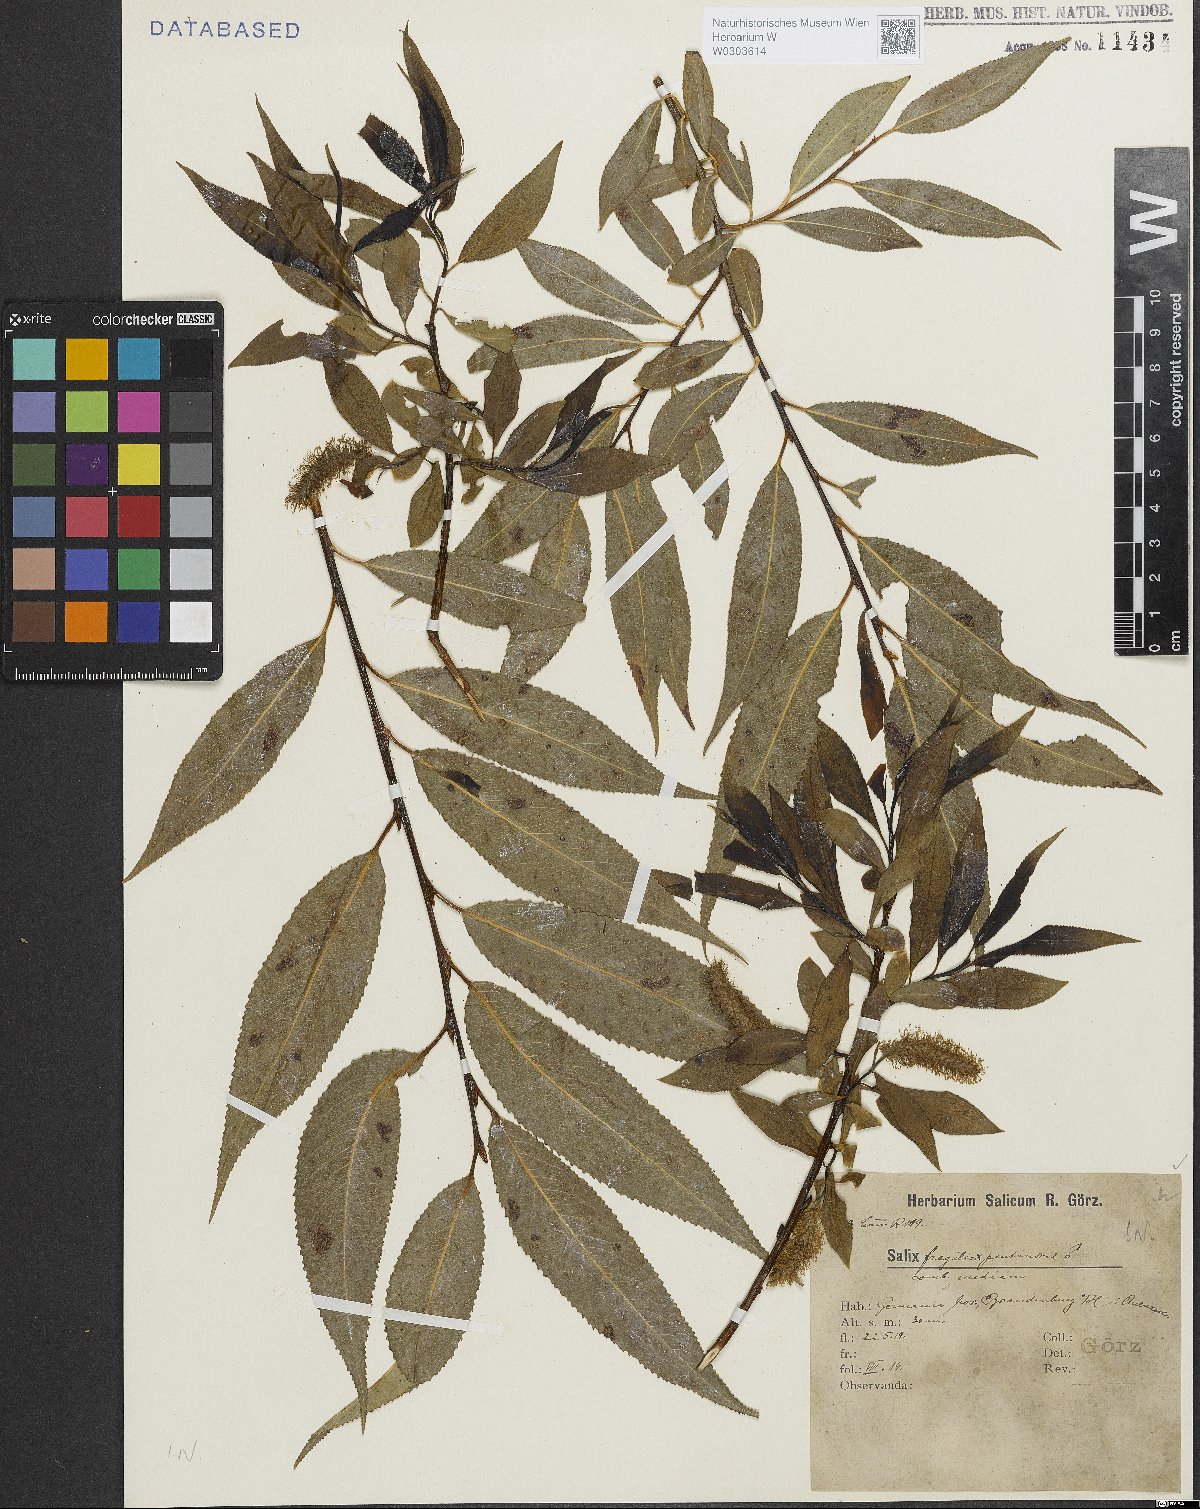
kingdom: Plantae
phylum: Tracheophyta
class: Magnoliopsida
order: Malpighiales
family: Salicaceae
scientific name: Salicaceae
